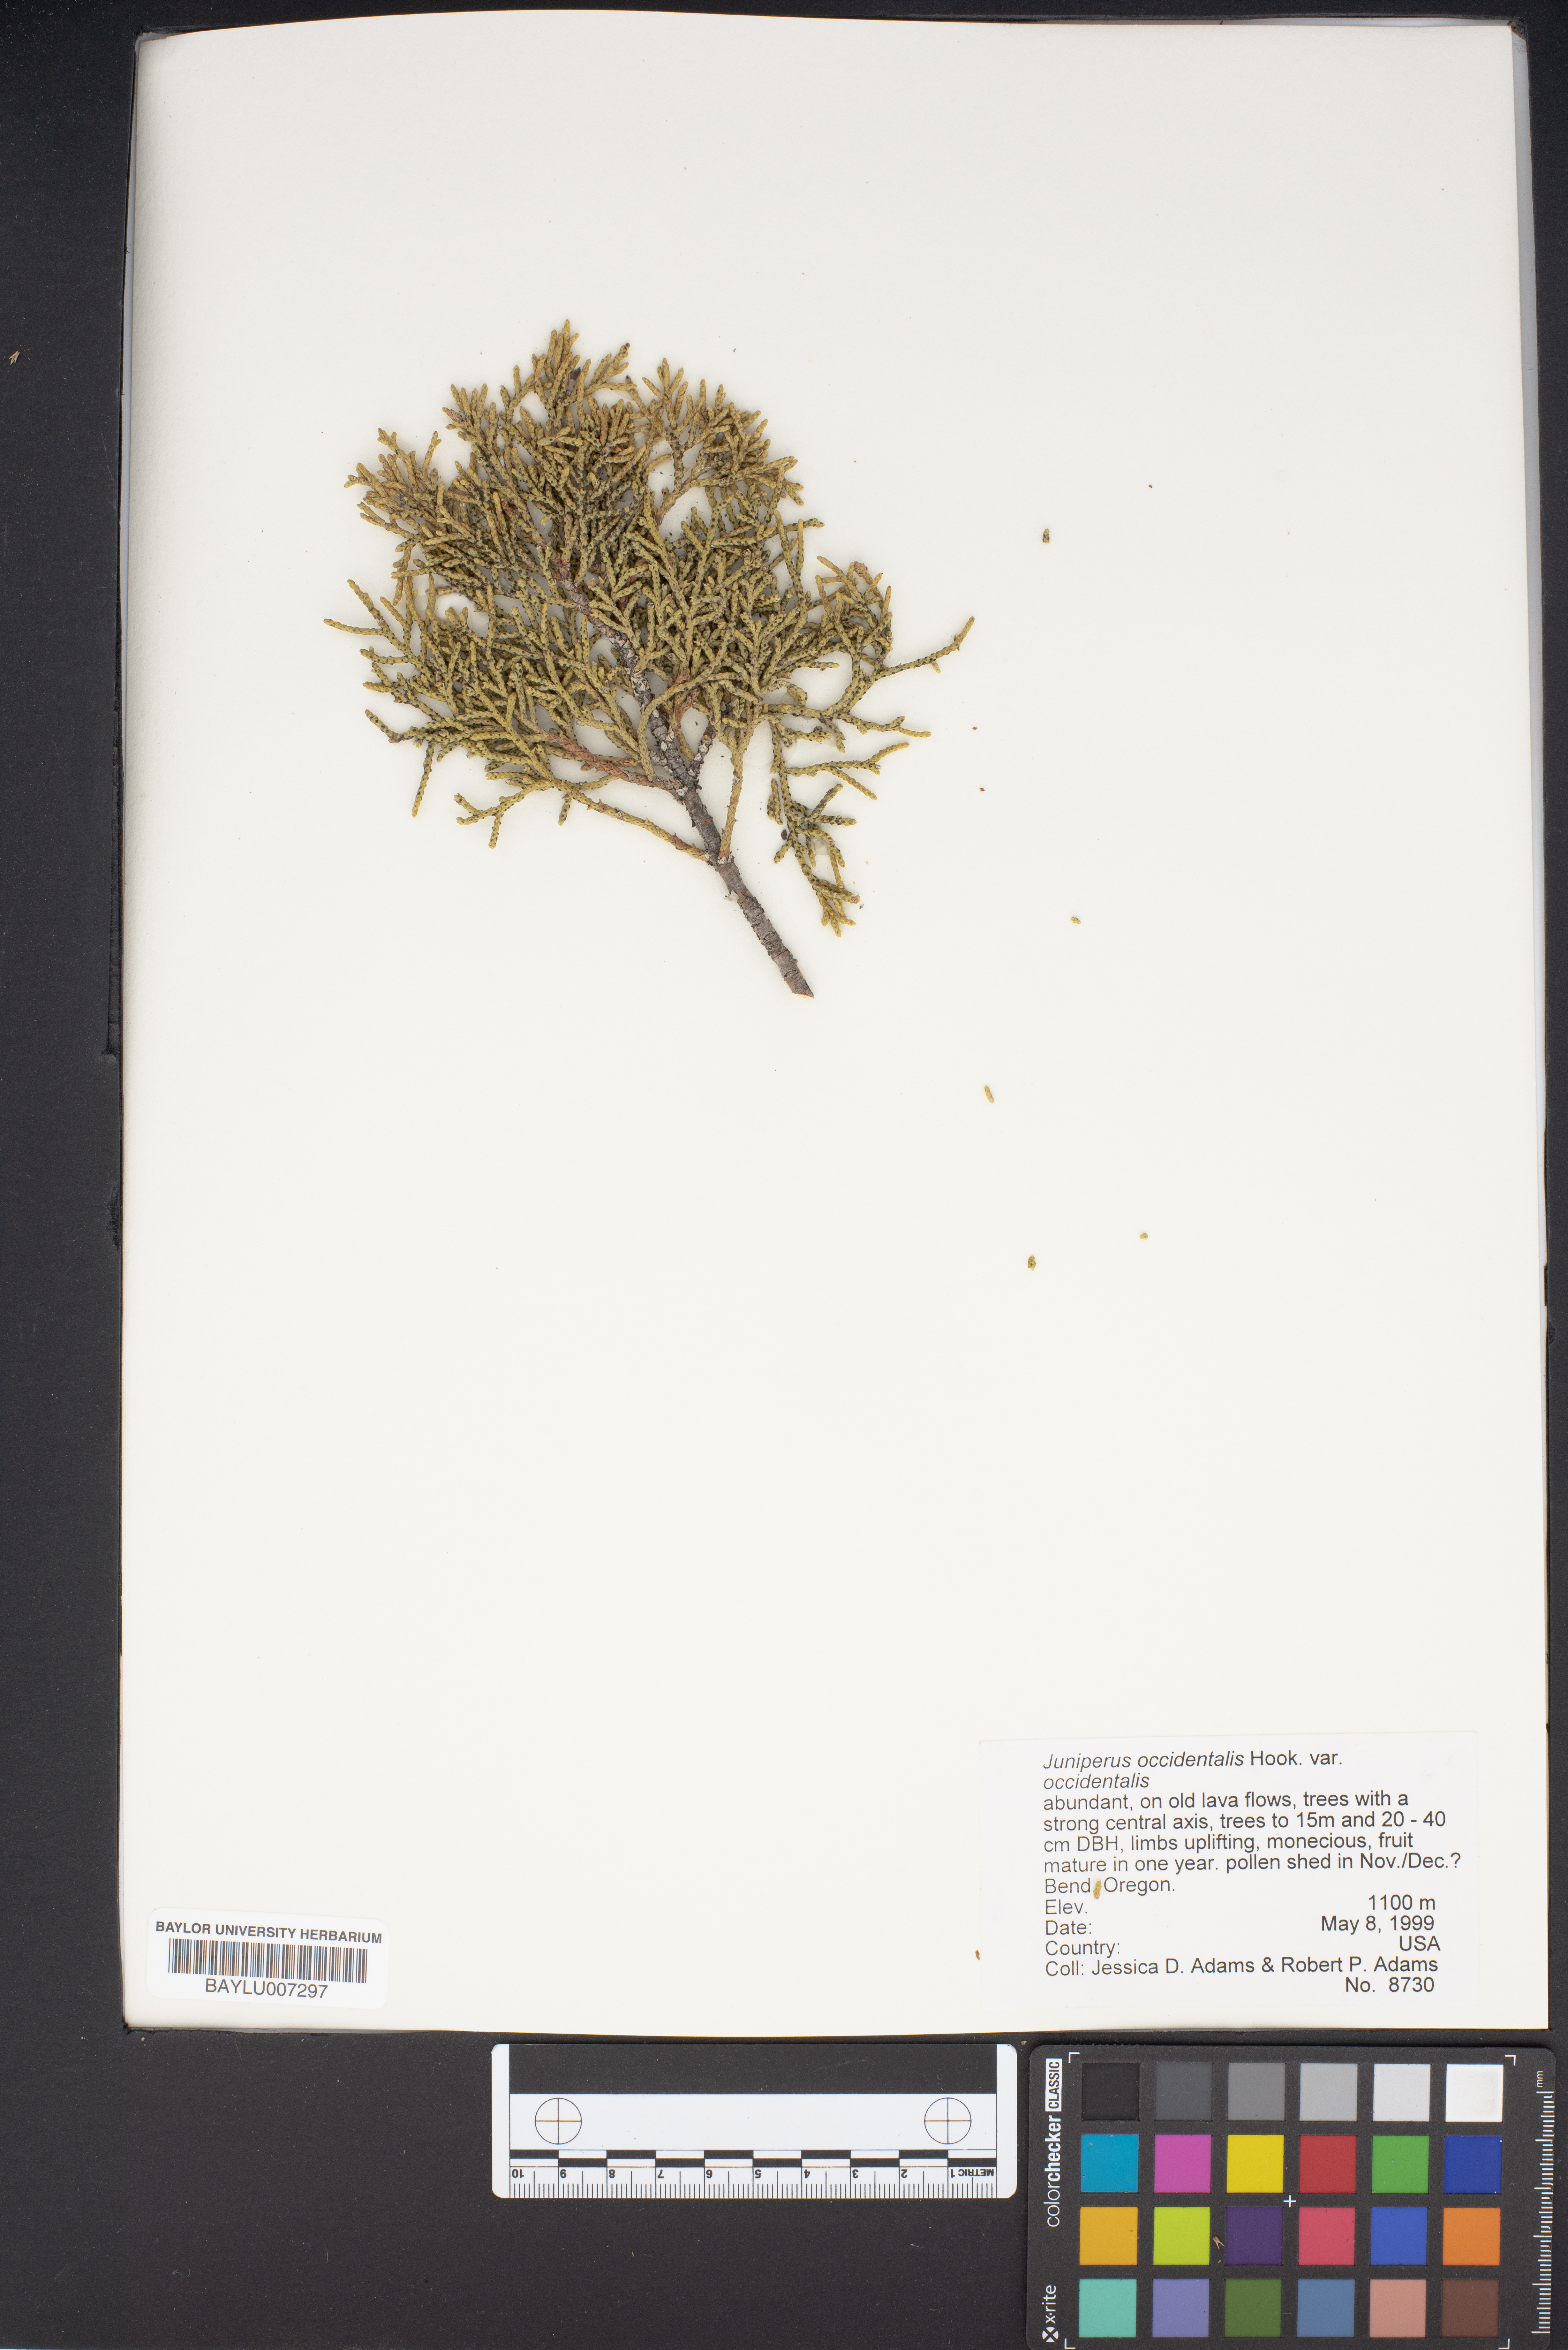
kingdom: Plantae
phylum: Tracheophyta
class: Pinopsida
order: Pinales
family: Cupressaceae
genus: Juniperus
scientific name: Juniperus occidentalis
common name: Western juniper
